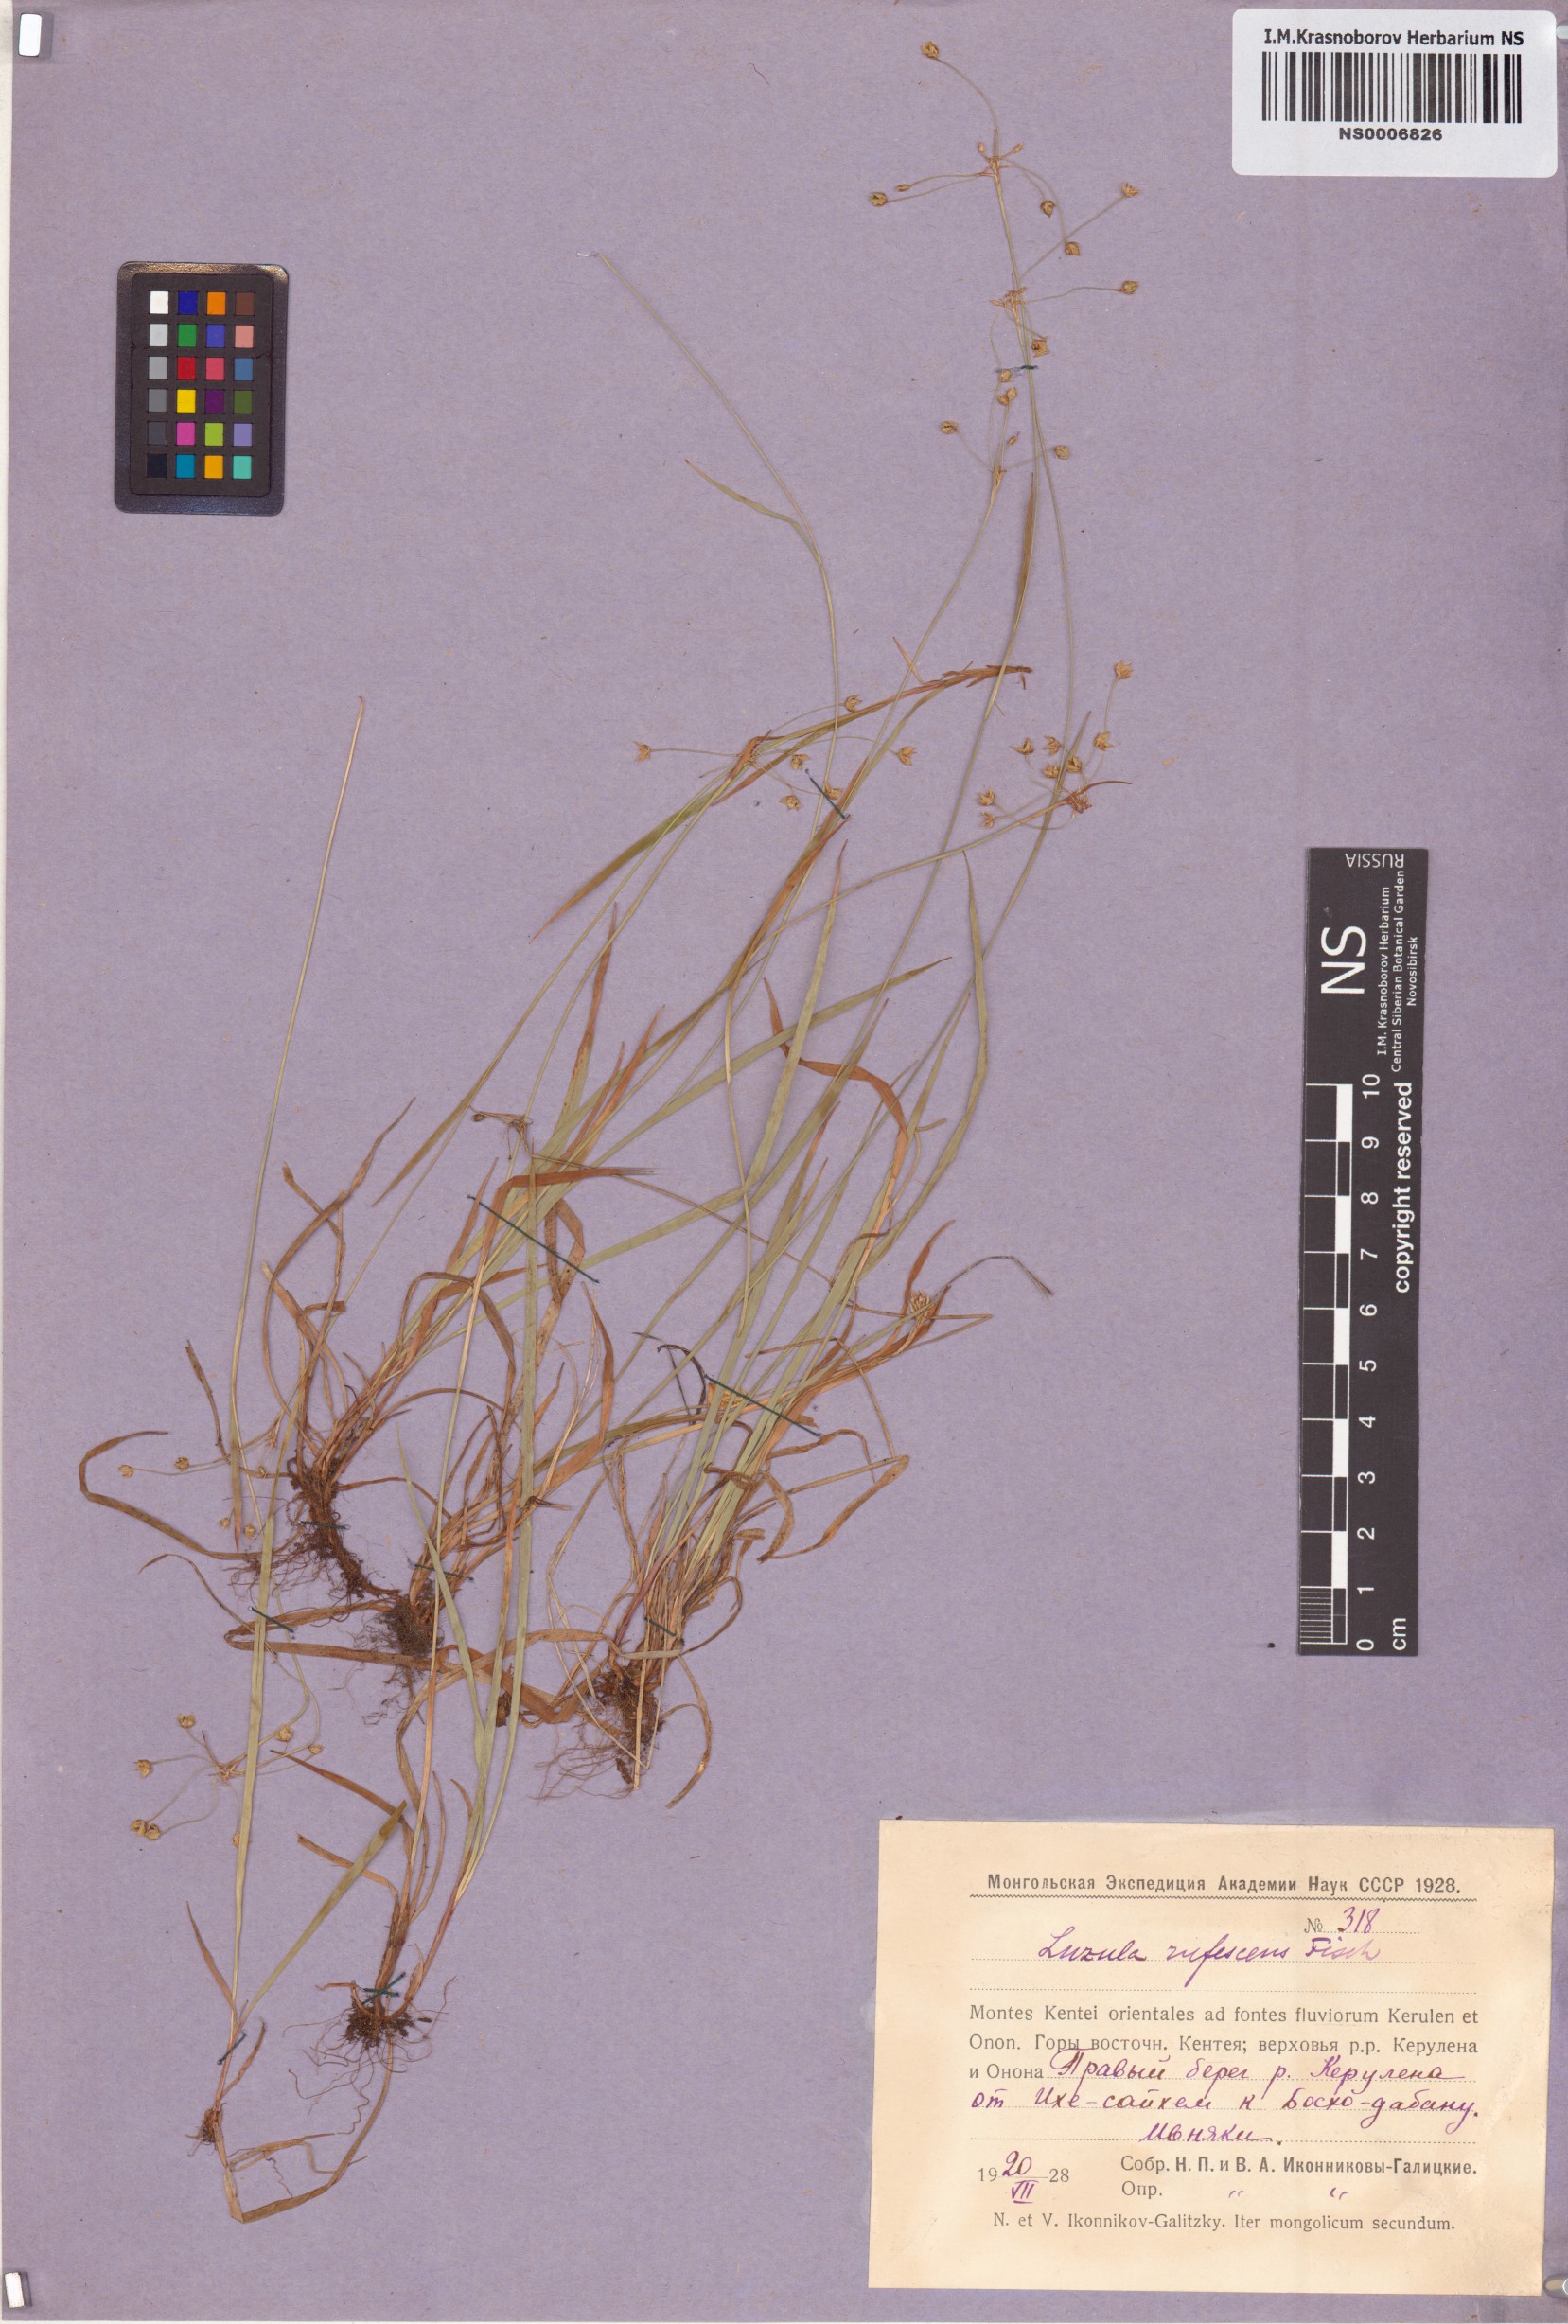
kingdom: Plantae
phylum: Tracheophyta
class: Liliopsida
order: Poales
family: Juncaceae
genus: Luzula
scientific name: Luzula rufescens
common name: Reddish woodrush
